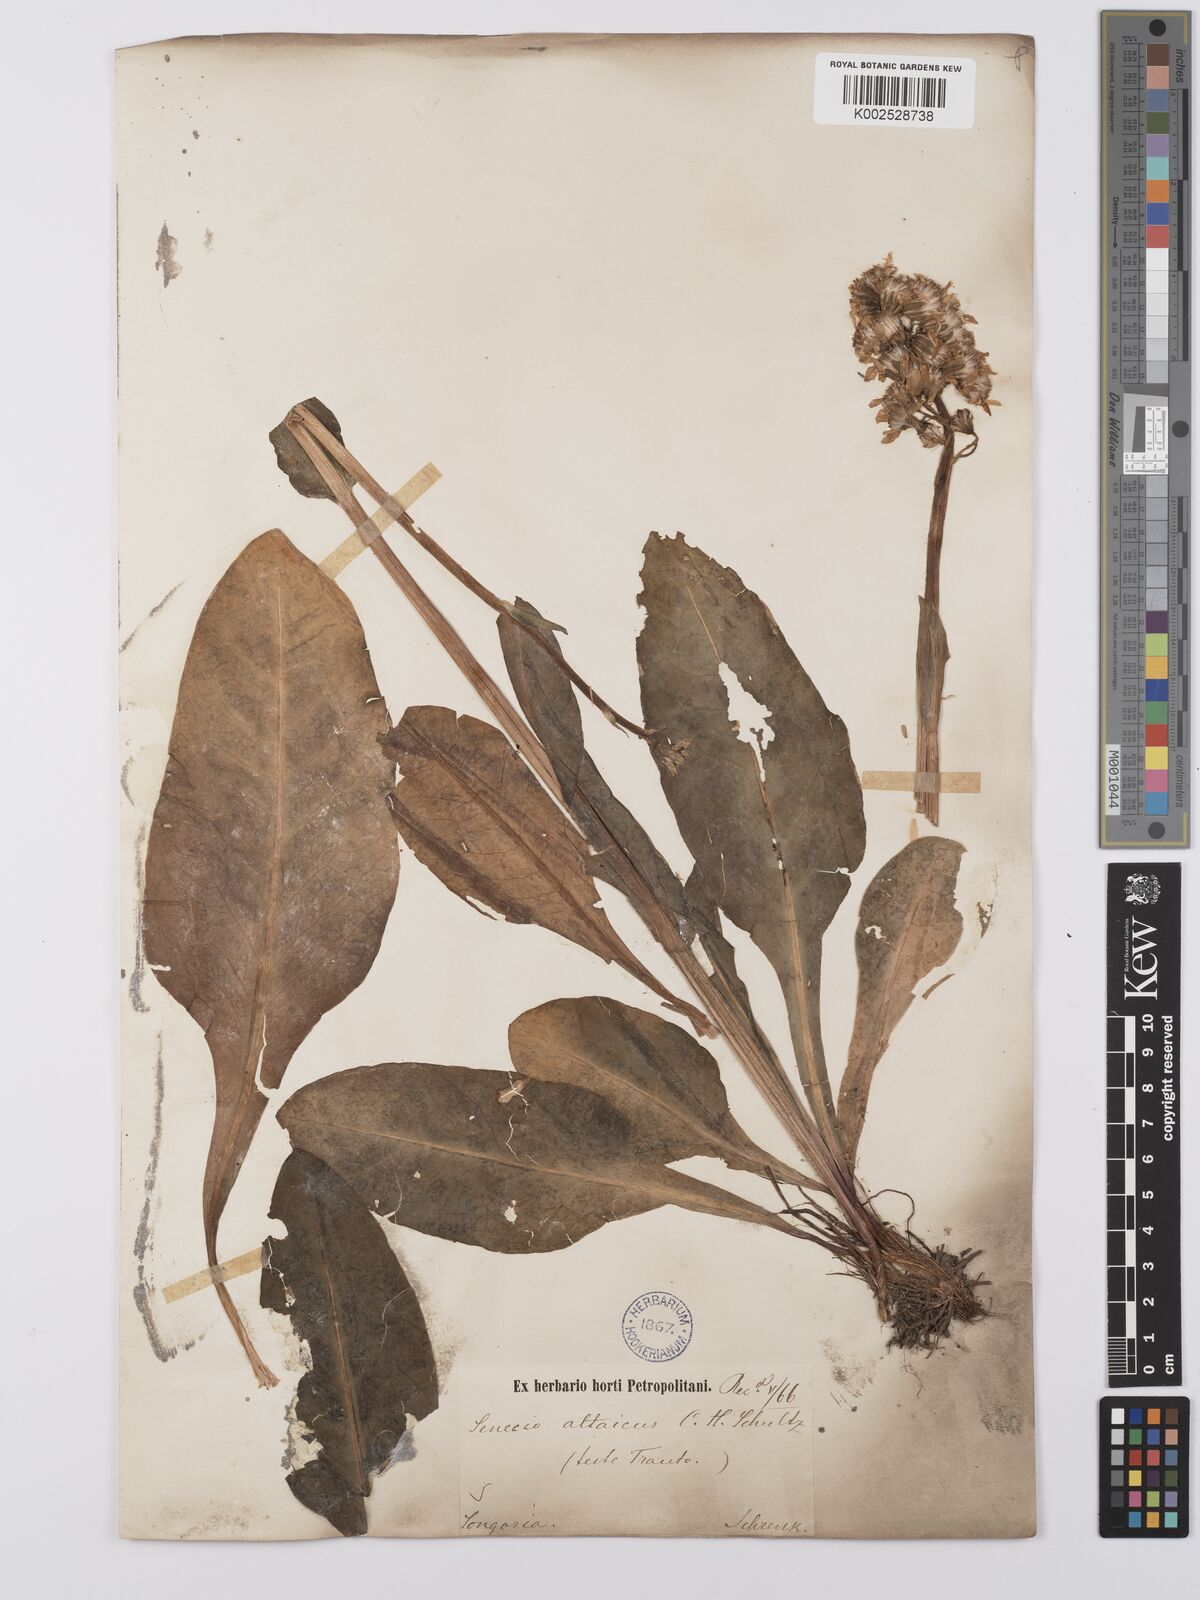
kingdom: Plantae
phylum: Tracheophyta
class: Magnoliopsida
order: Asterales
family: Asteraceae
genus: Ligularia
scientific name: Ligularia altaica
